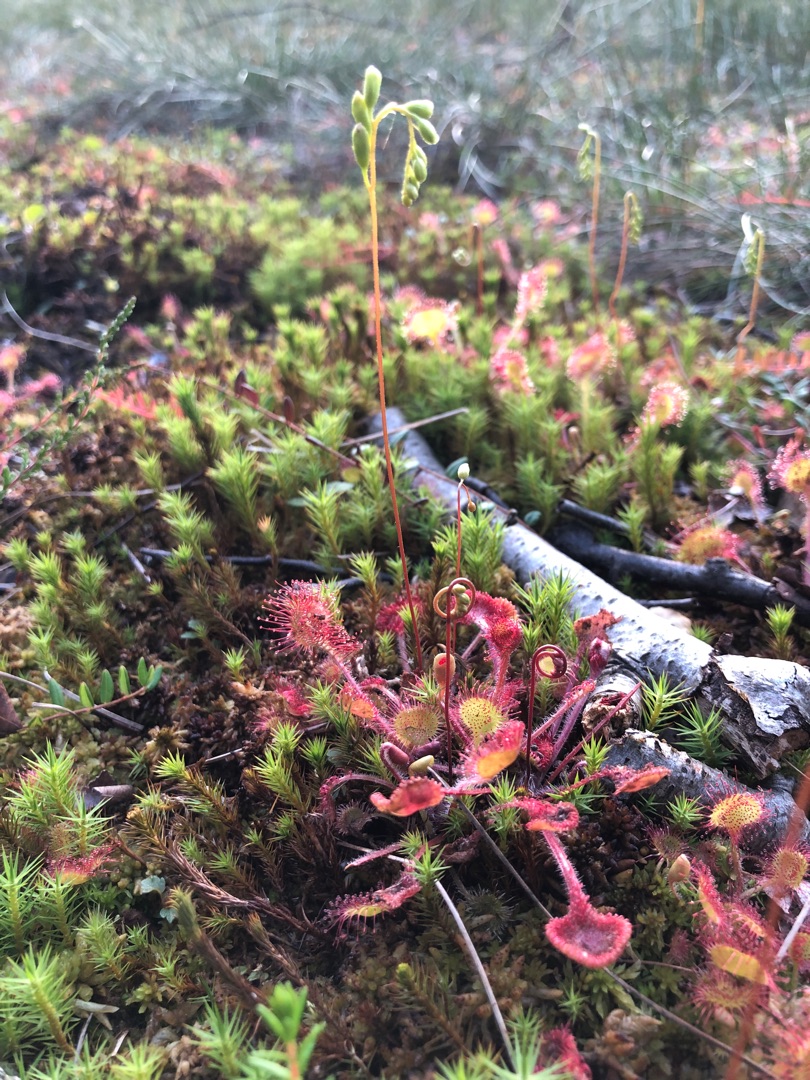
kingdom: Plantae
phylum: Tracheophyta
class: Magnoliopsida
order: Caryophyllales
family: Droseraceae
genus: Drosera
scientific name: Drosera rotundifolia
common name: Rundbladet soldug
